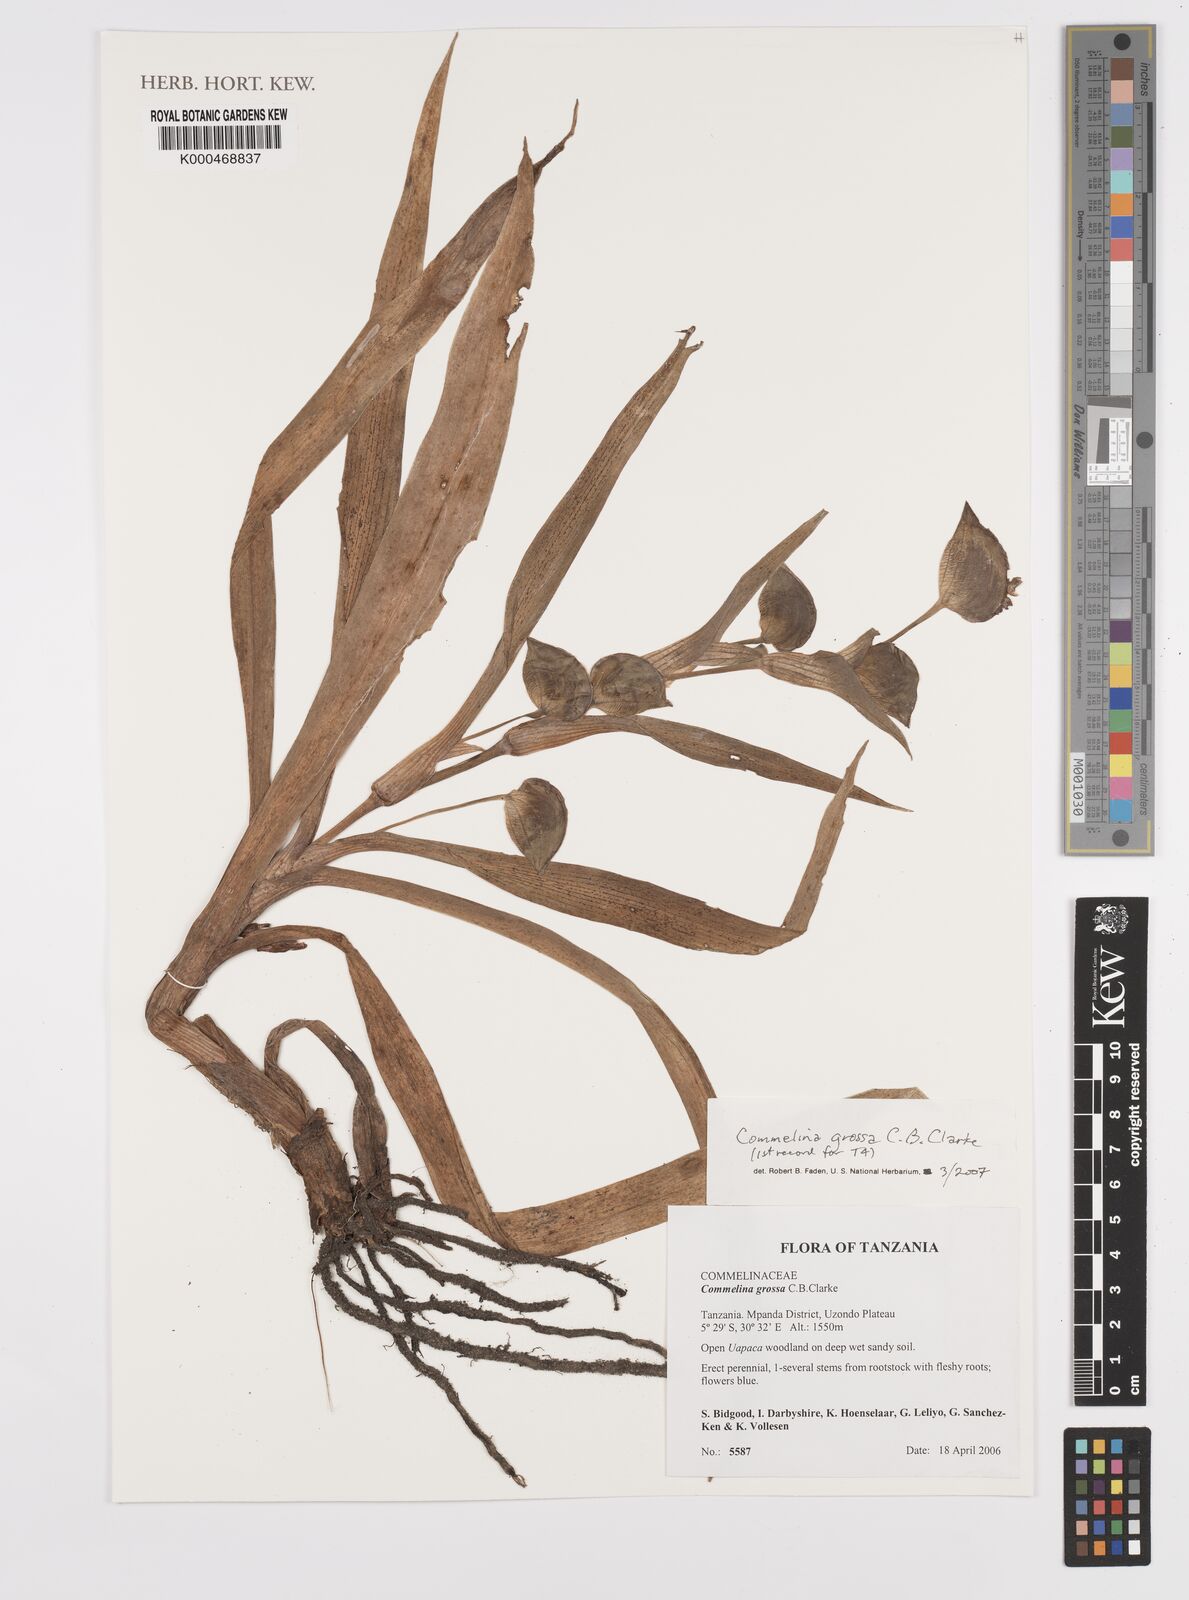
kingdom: Plantae
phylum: Tracheophyta
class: Liliopsida
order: Commelinales
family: Commelinaceae
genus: Commelina
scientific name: Commelina grossa
